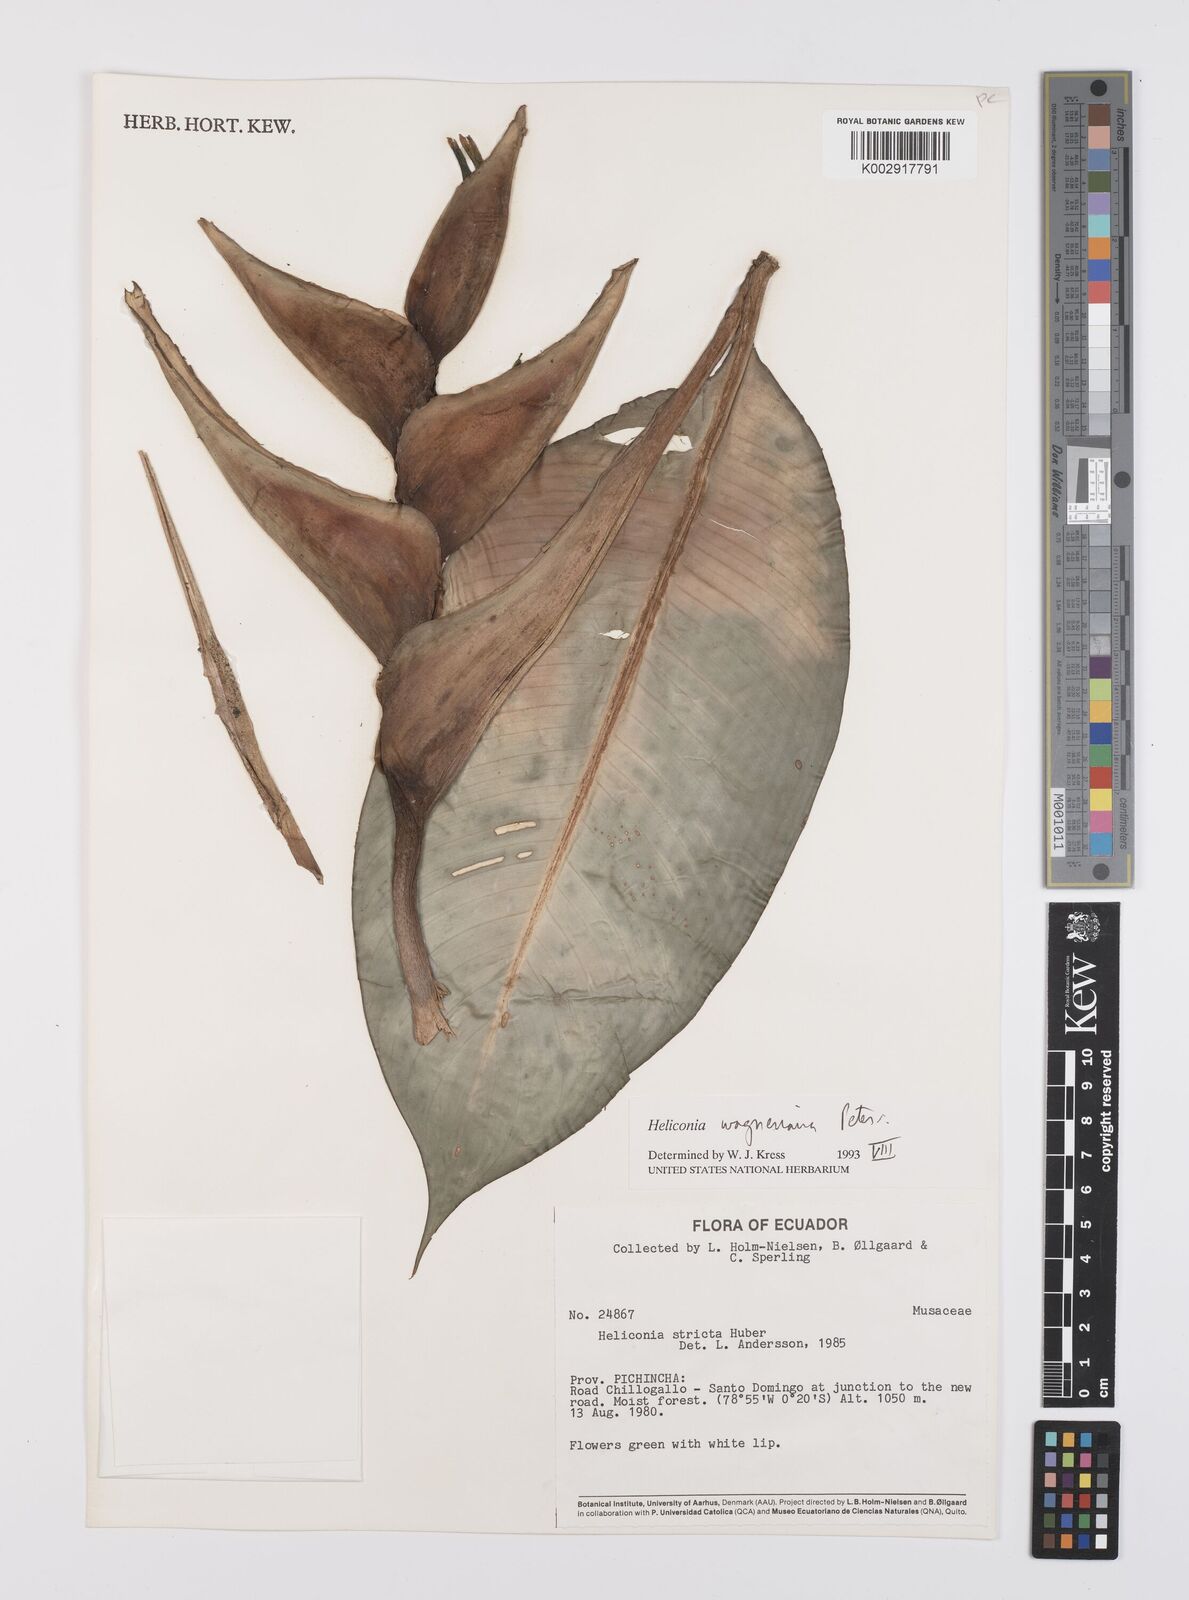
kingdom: Plantae
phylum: Tracheophyta
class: Liliopsida
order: Zingiberales
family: Heliconiaceae
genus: Heliconia
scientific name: Heliconia
